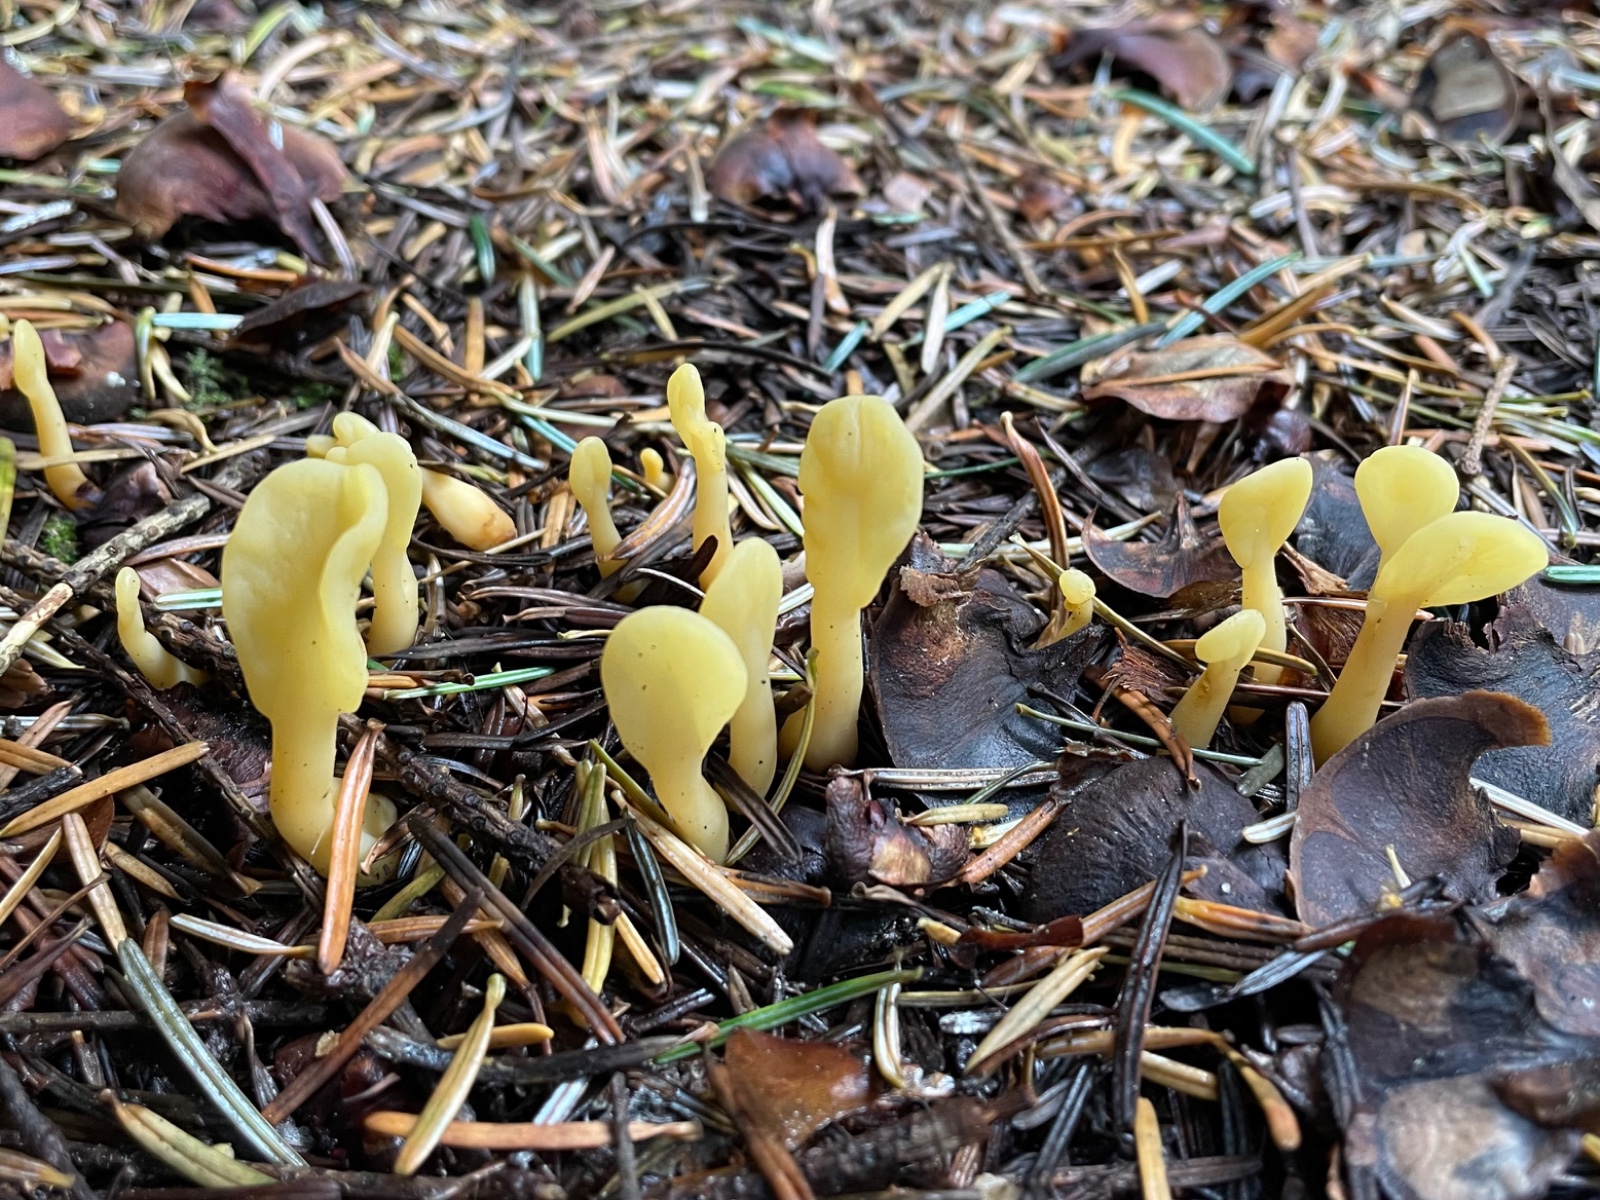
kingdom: Fungi
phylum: Ascomycota
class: Leotiomycetes
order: Rhytismatales
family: Cudoniaceae
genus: Spathularia
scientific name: Spathularia flavida
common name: gul spatelsvamp
